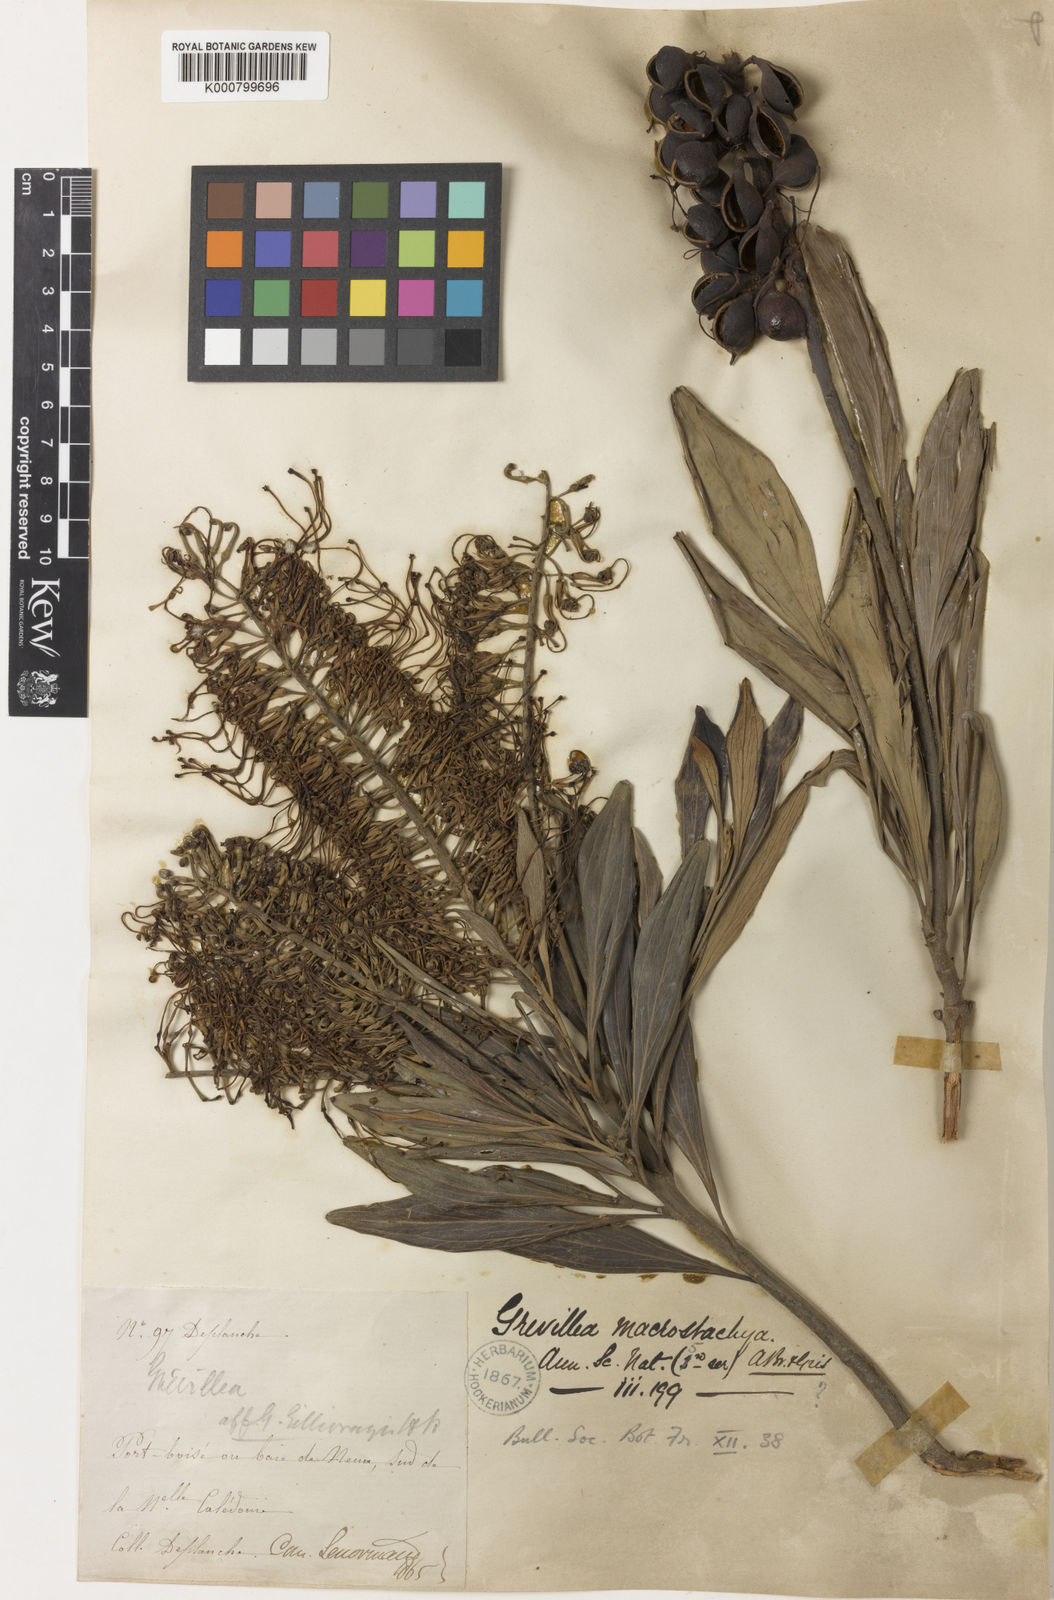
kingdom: Plantae
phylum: Tracheophyta
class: Magnoliopsida
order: Proteales
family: Proteaceae
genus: Grevillea
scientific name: Grevillea exul
